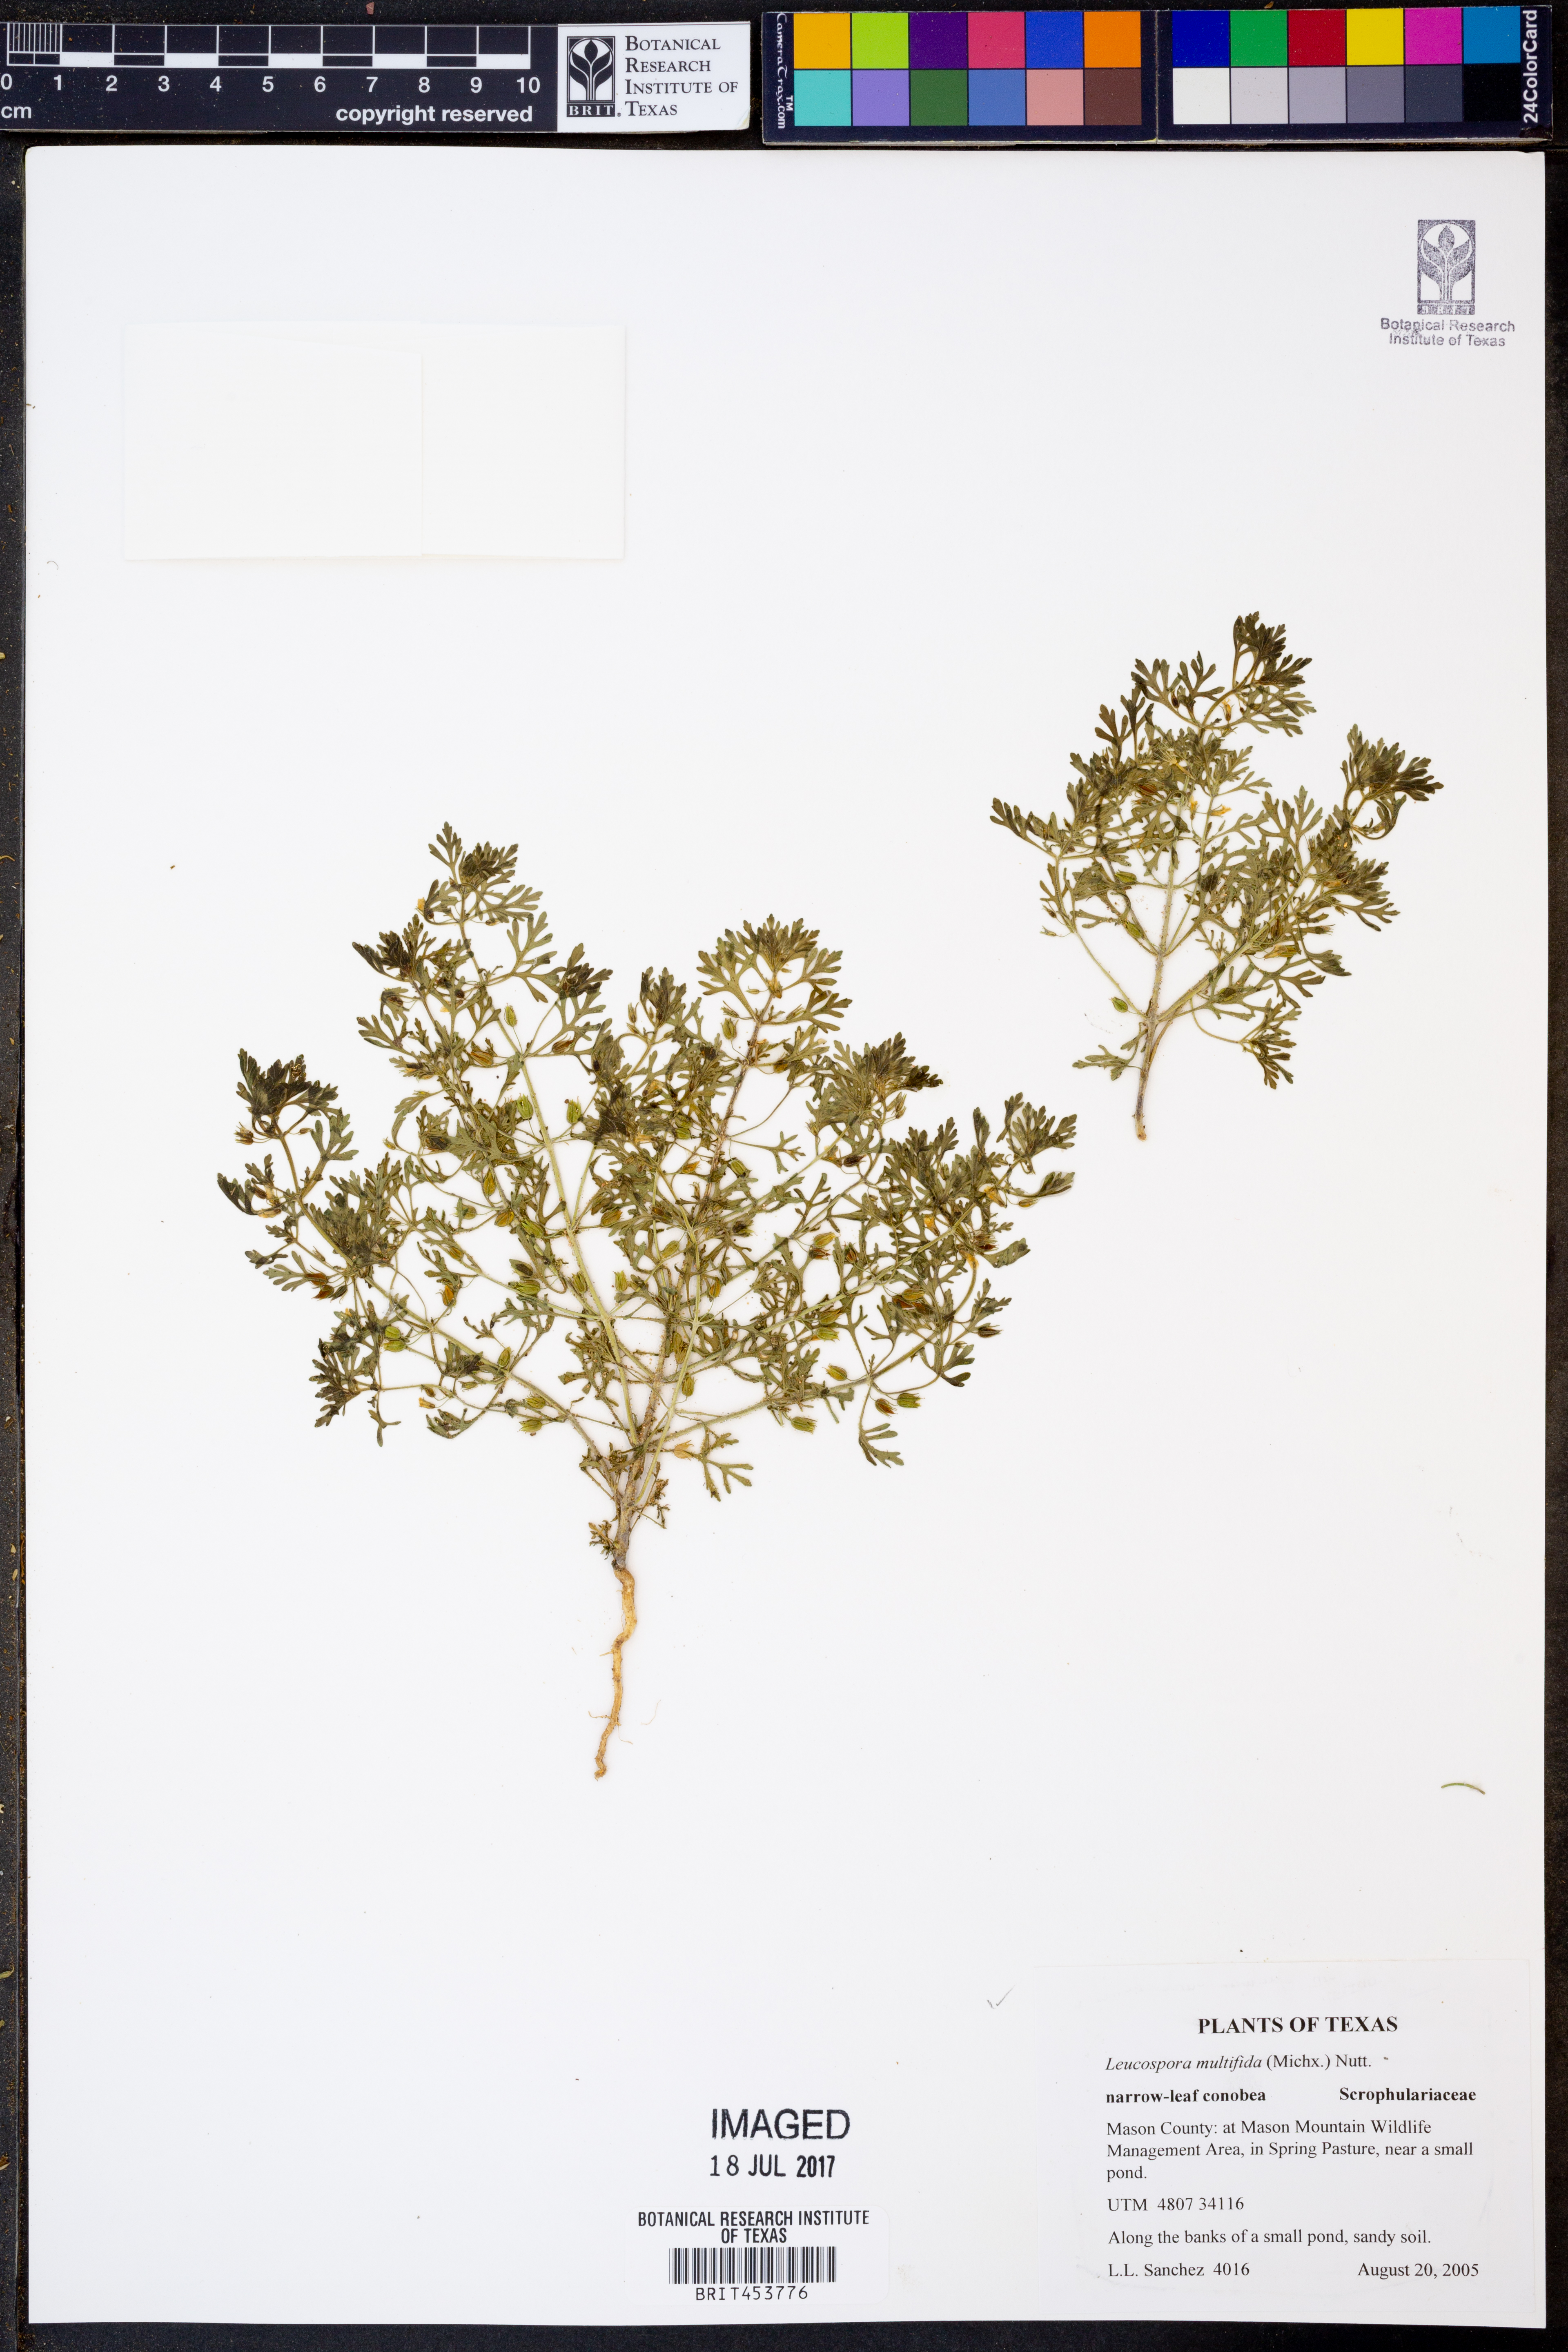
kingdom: Plantae
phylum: Tracheophyta
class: Magnoliopsida
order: Lamiales
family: Plantaginaceae
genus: Leucospora
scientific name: Leucospora multifida
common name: Narrow-leaf paleseed
